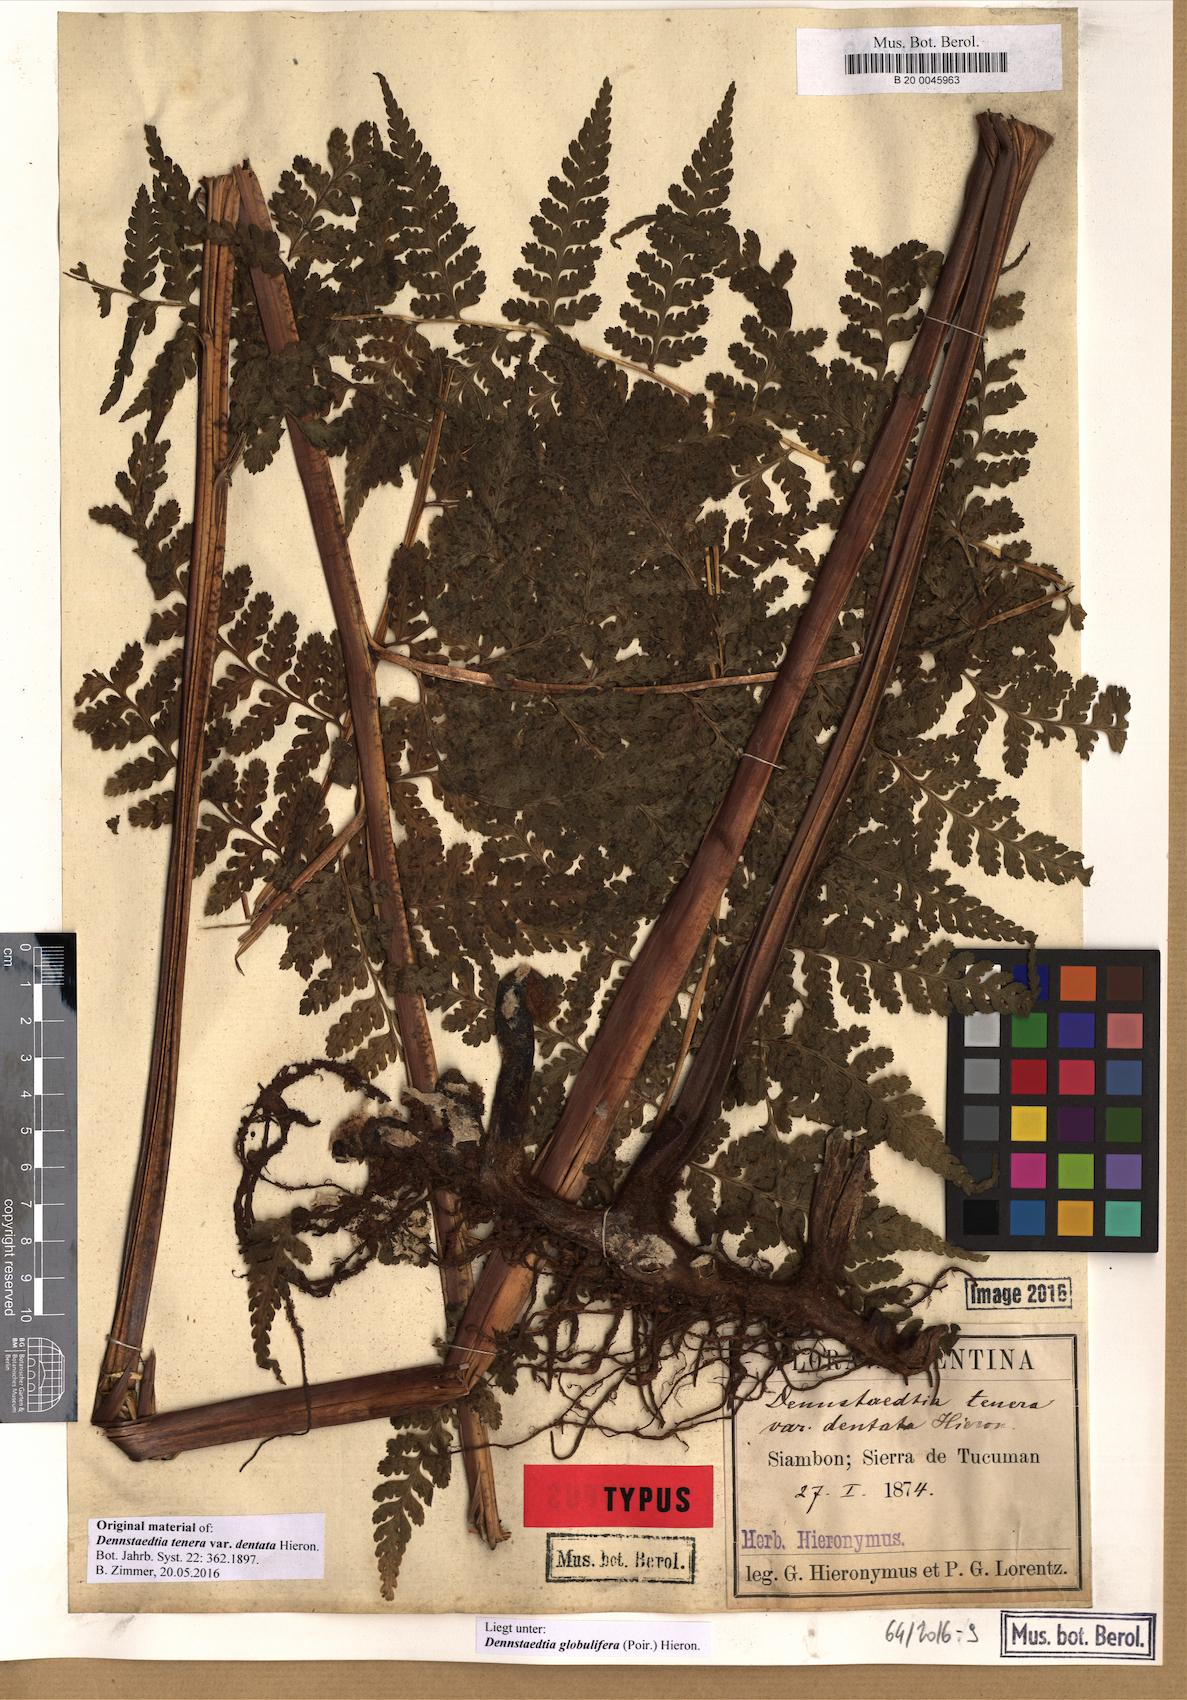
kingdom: Plantae
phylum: Tracheophyta
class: Polypodiopsida
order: Polypodiales
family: Dennstaedtiaceae
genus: Mucura
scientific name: Mucura globulifera
